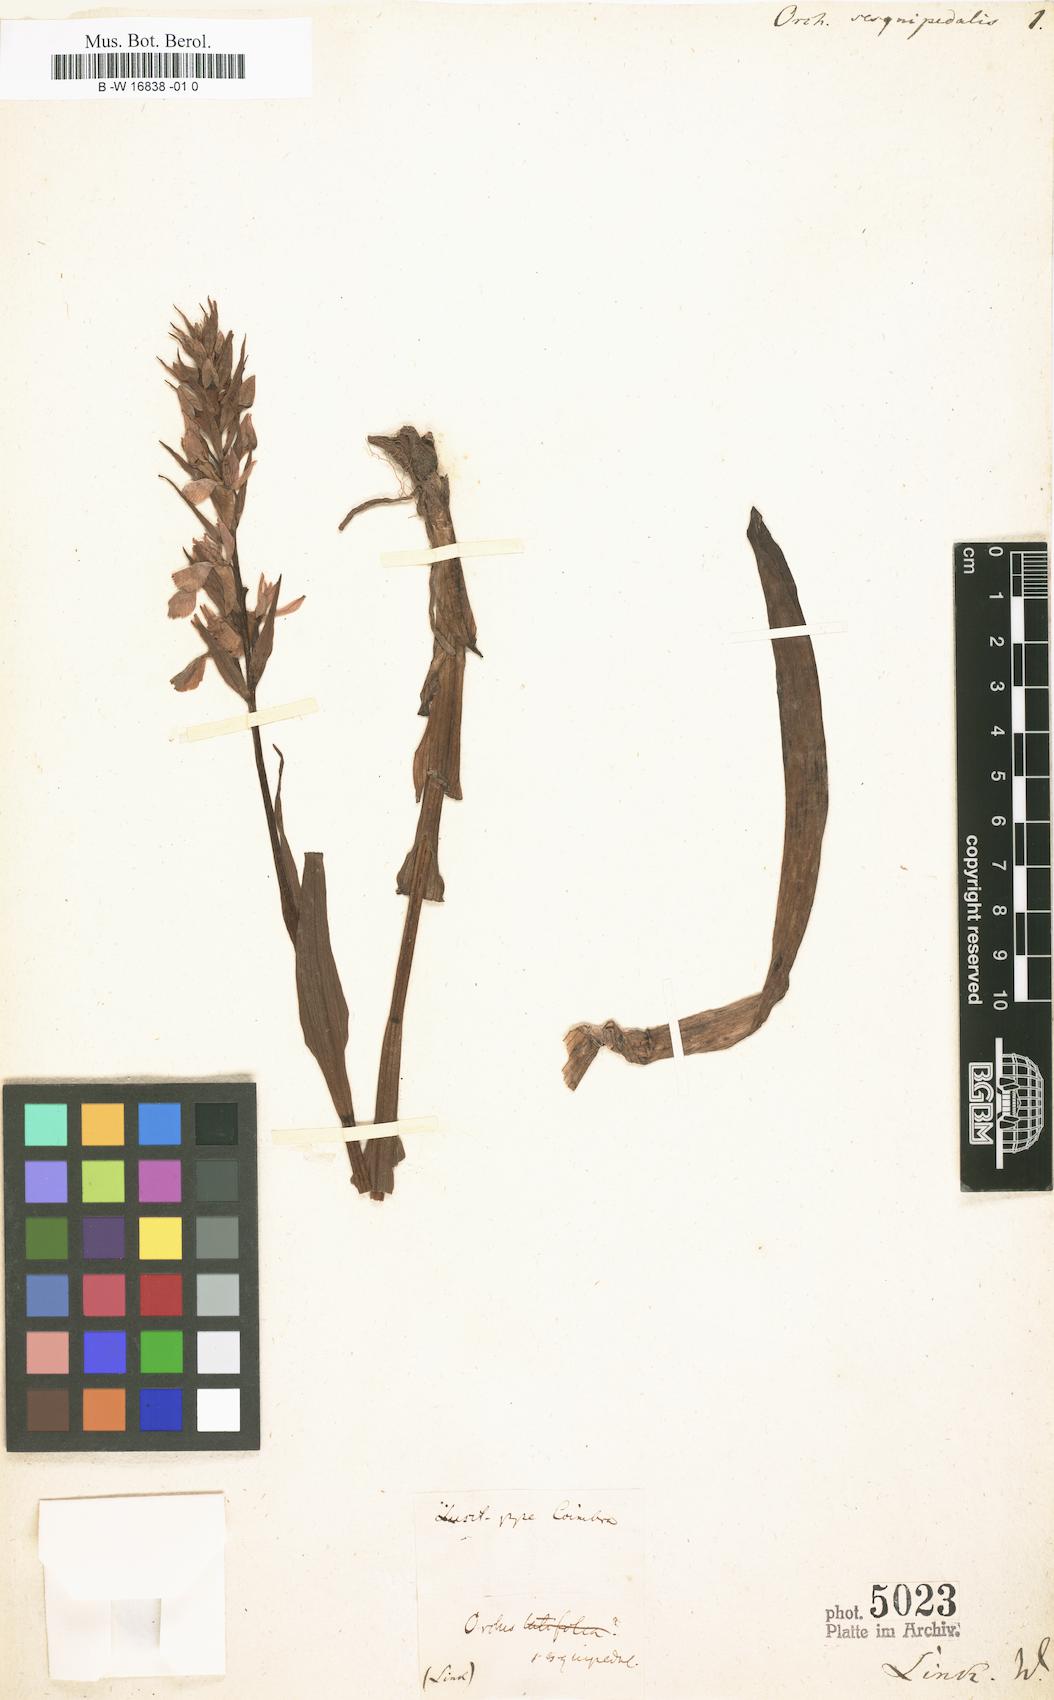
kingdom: Plantae
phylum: Tracheophyta
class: Liliopsida
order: Asparagales
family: Orchidaceae
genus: Dactylorhiza
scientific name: Dactylorhiza elata
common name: Stately dactylorhiza
